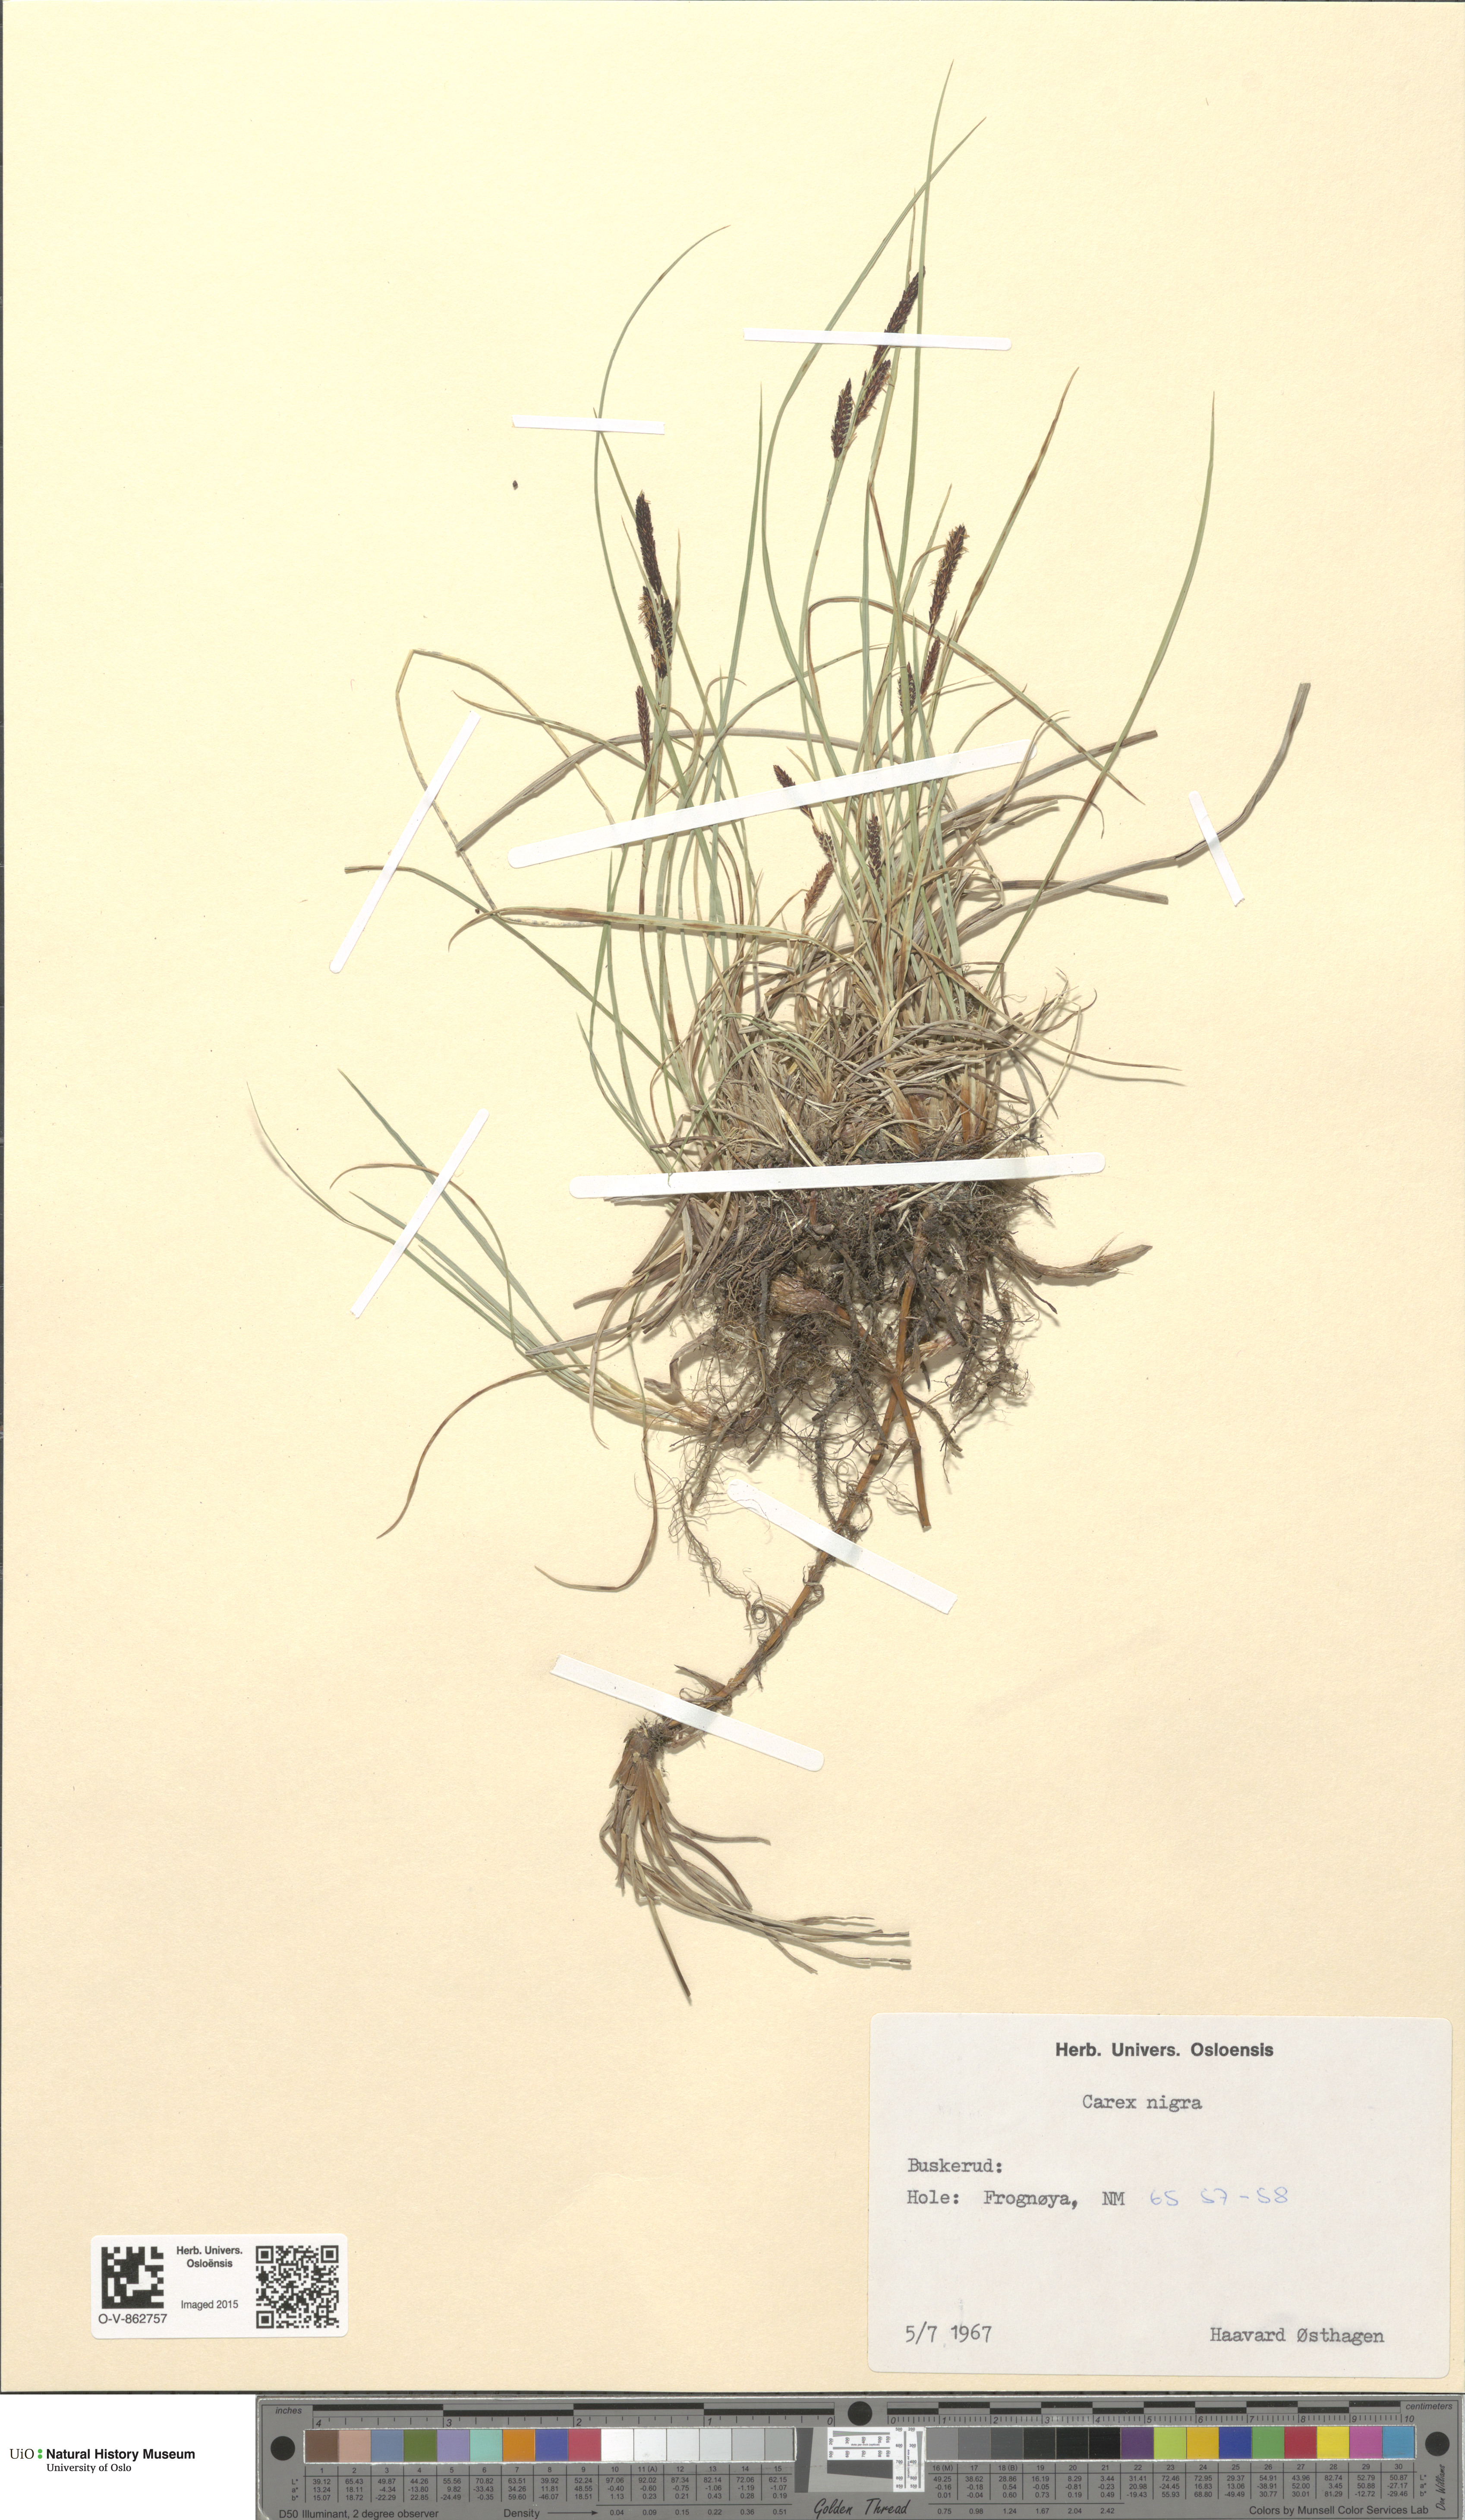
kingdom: Plantae
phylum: Tracheophyta
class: Liliopsida
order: Poales
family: Cyperaceae
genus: Carex
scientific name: Carex nigra
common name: Common sedge
